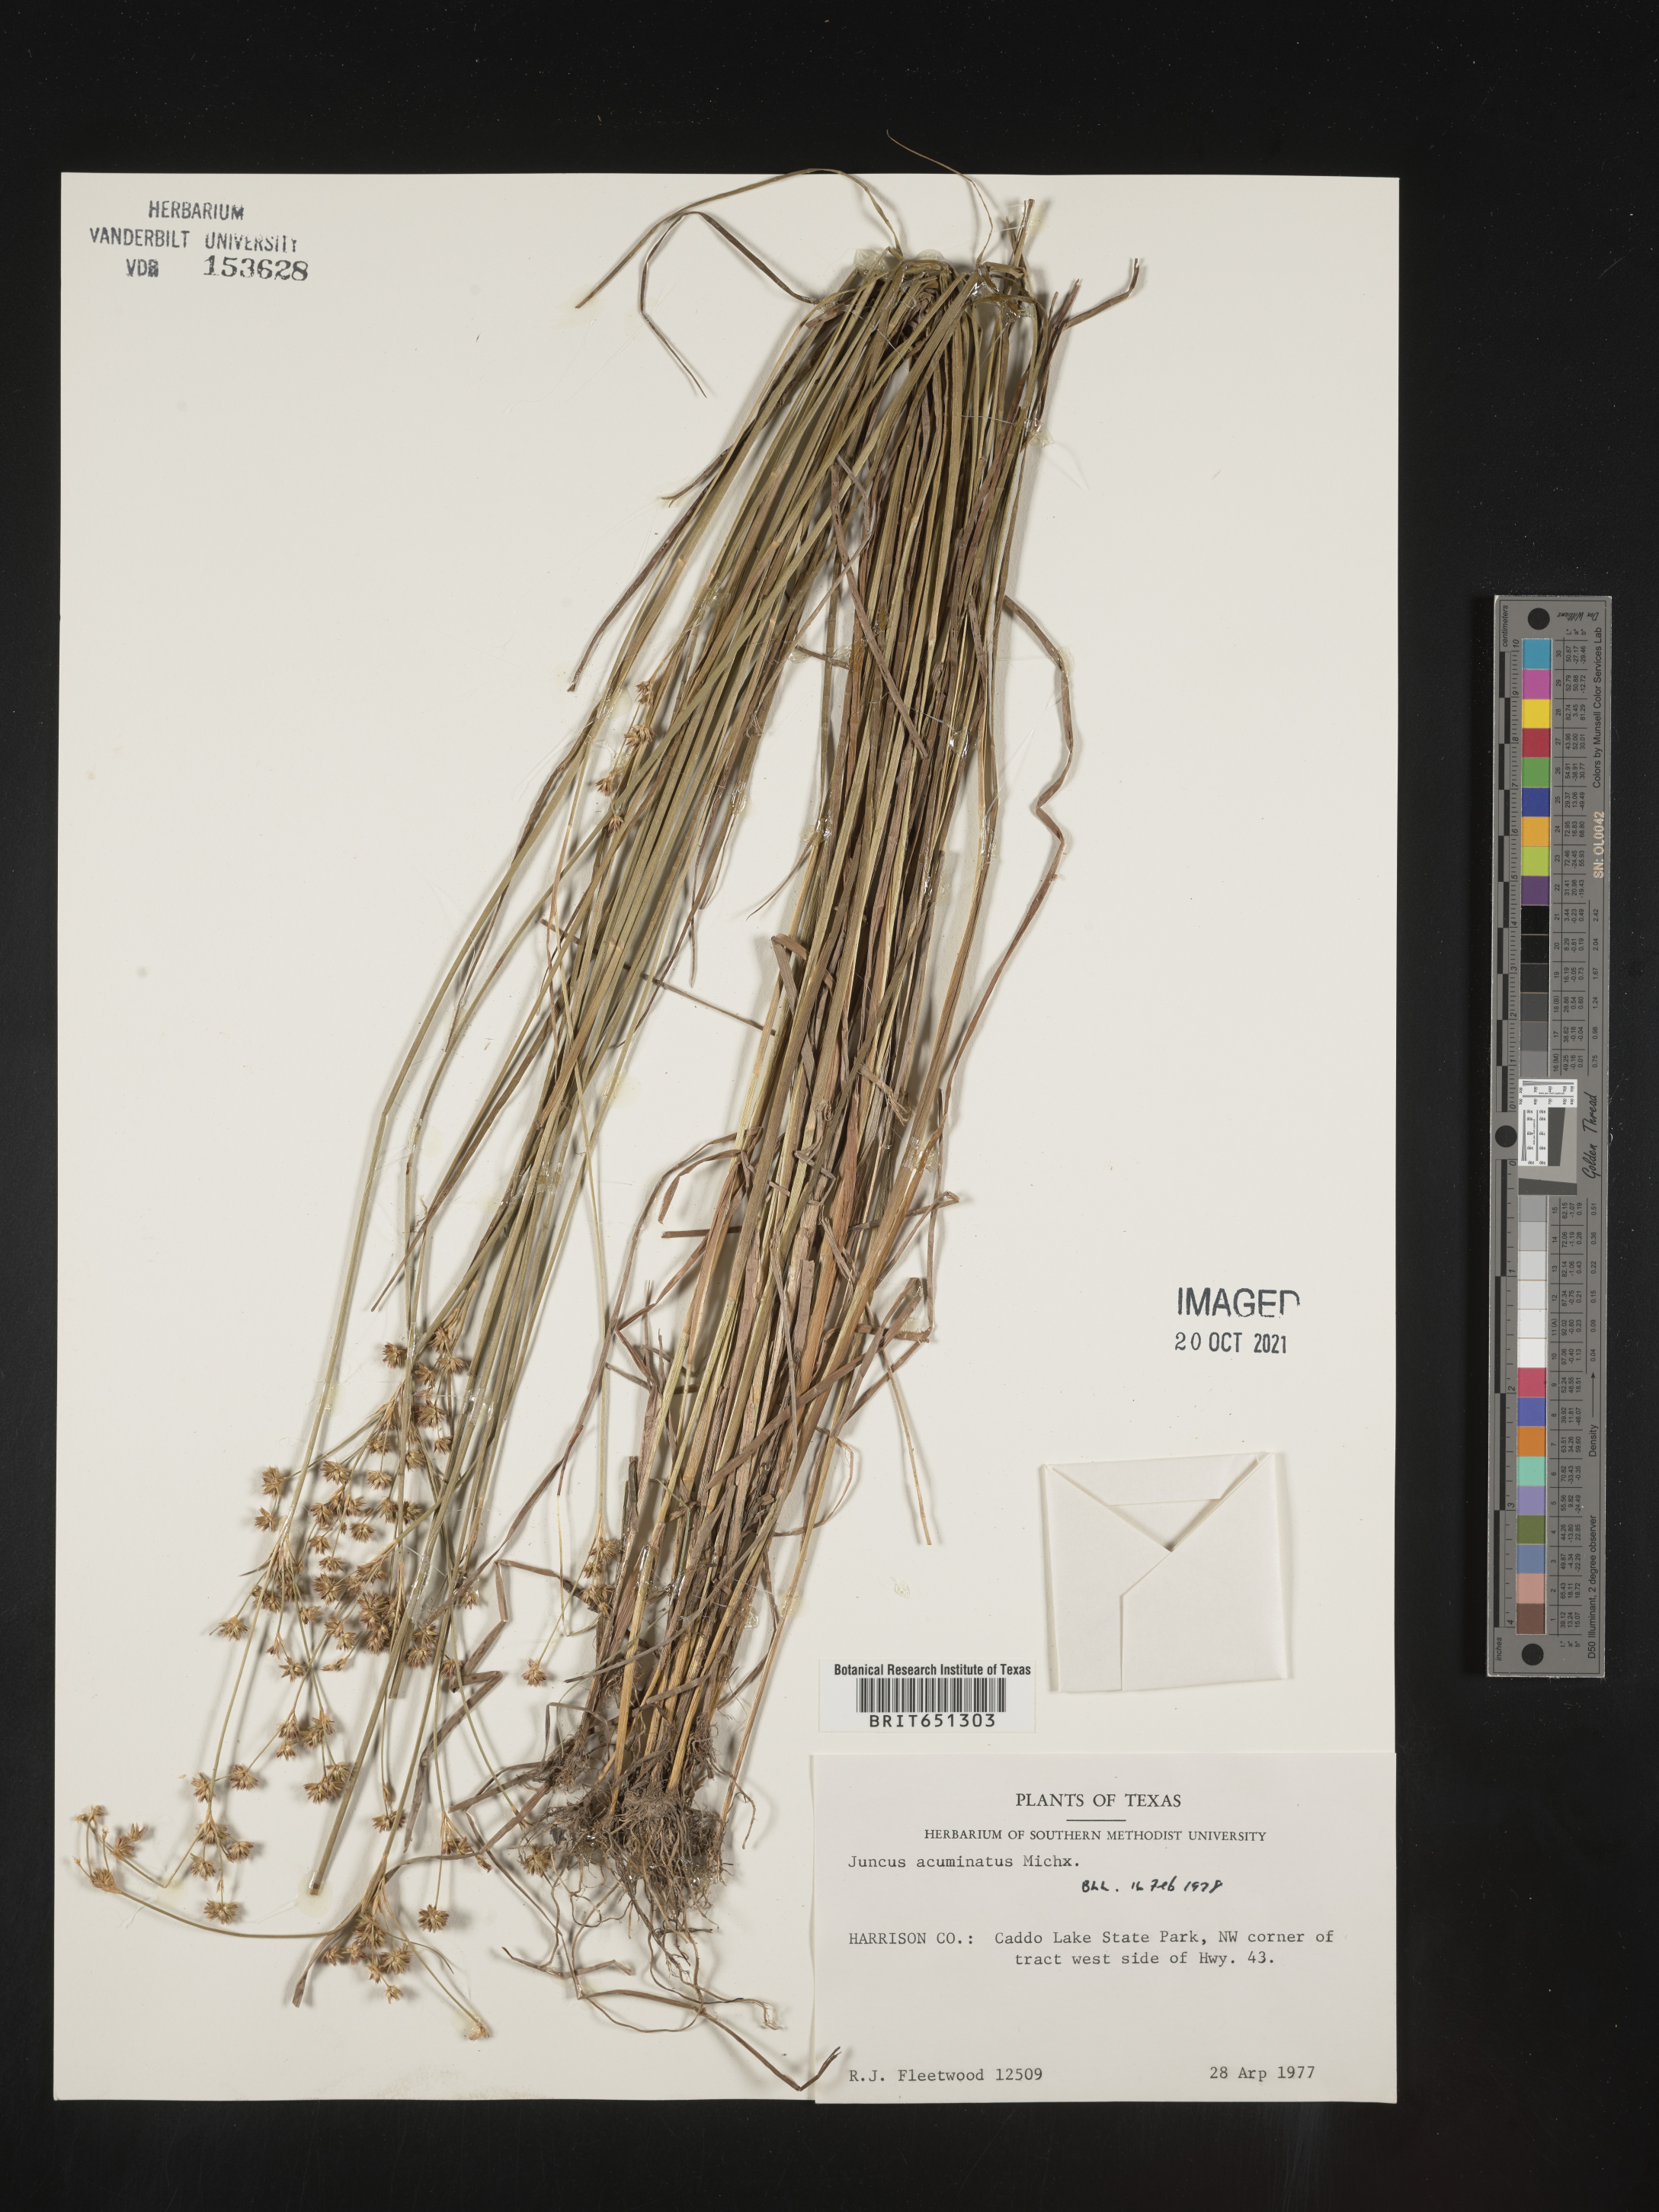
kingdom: Plantae
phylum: Tracheophyta
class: Liliopsida
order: Poales
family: Juncaceae
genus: Juncus
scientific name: Juncus acuminatus
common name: Knotty-leaved rush
